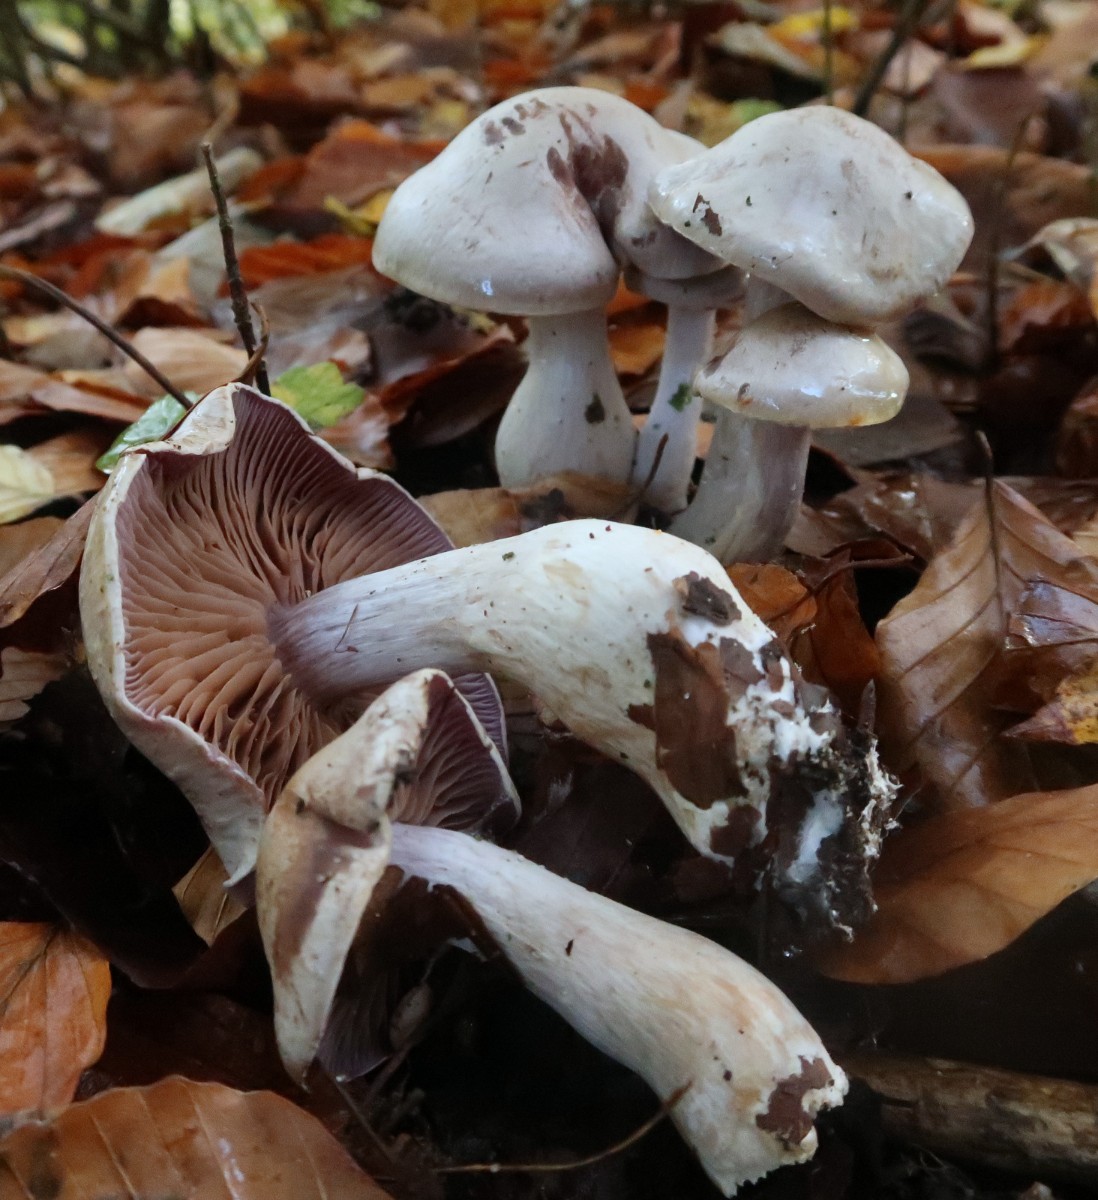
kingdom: Fungi
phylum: Basidiomycota
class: Agaricomycetes
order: Agaricales
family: Cortinariaceae
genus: Cortinarius
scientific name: Cortinarius alboviolaceus
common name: lysviolet slørhat
